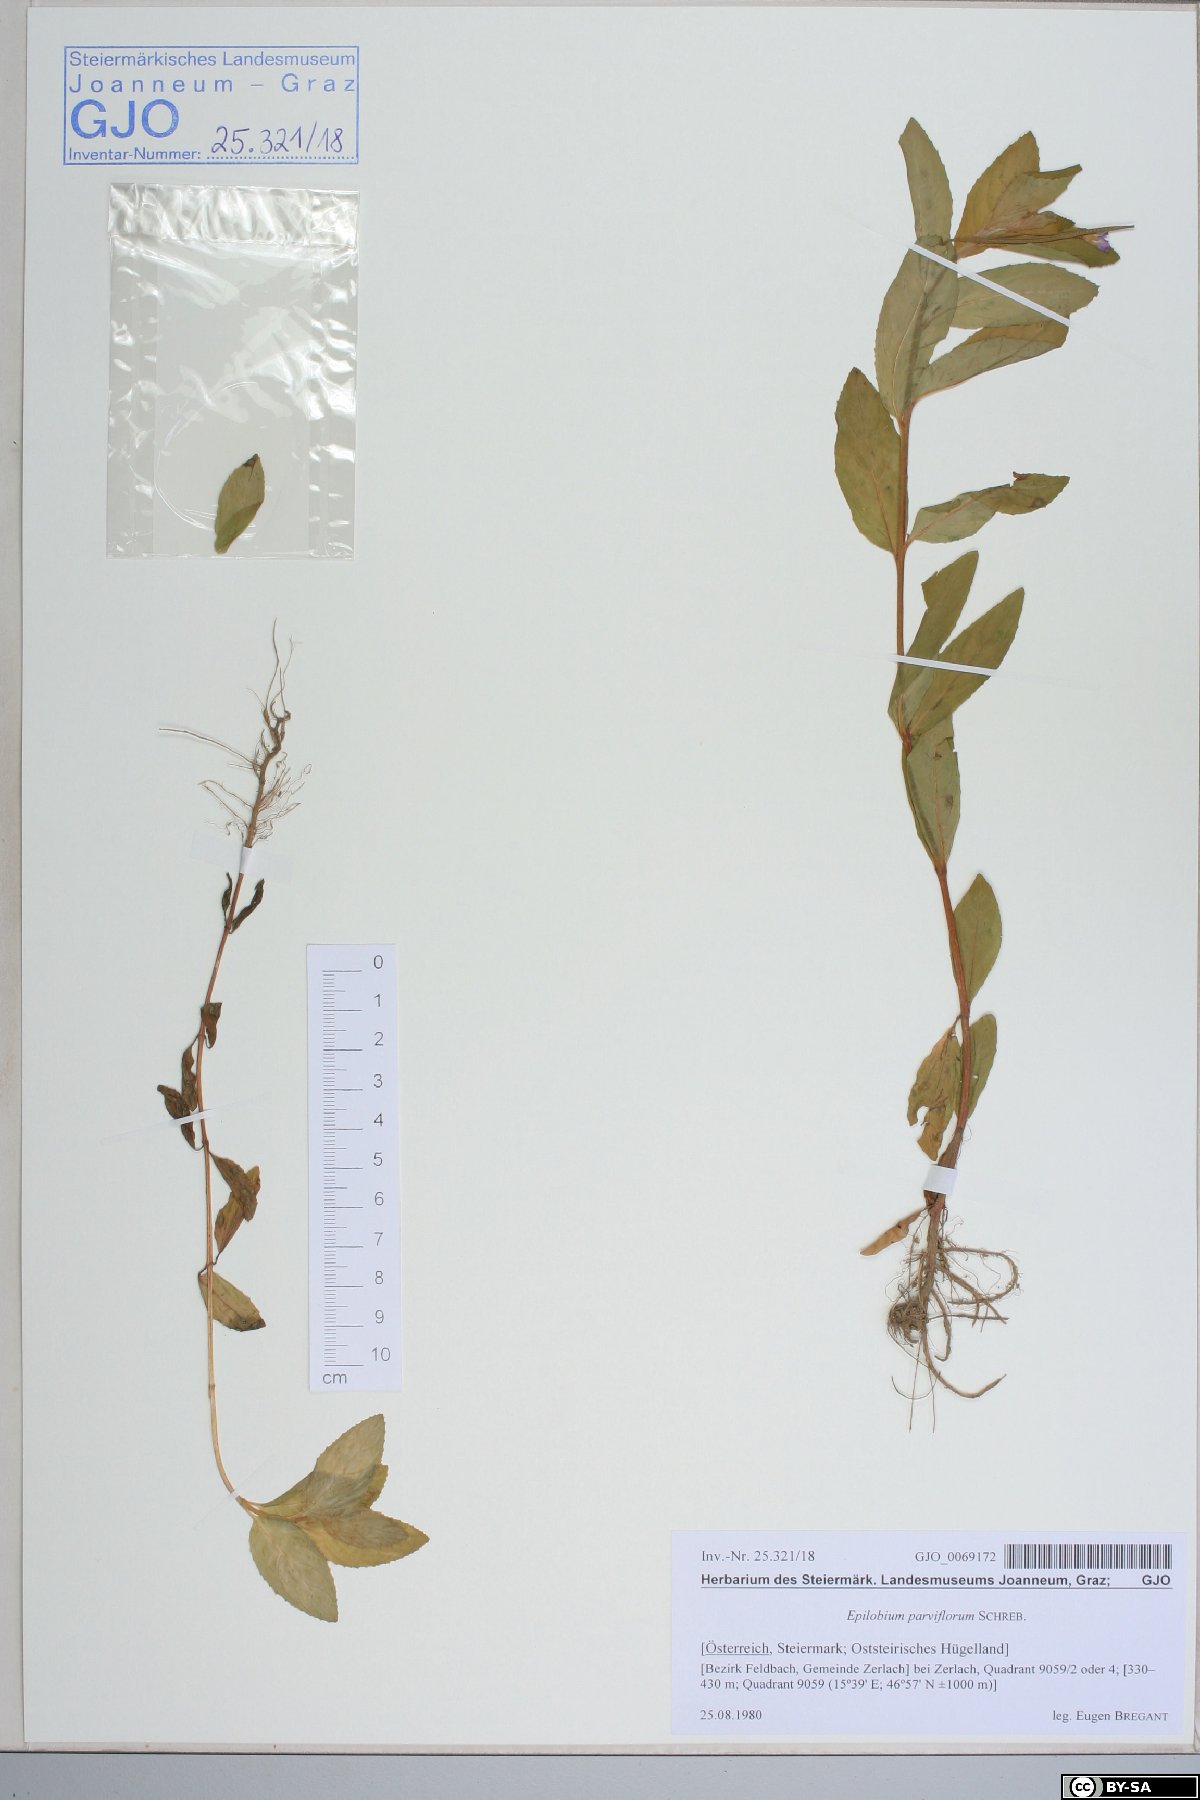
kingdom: Plantae
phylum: Tracheophyta
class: Magnoliopsida
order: Myrtales
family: Onagraceae
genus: Epilobium
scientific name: Epilobium parviflorum
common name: Hoary willowherb
